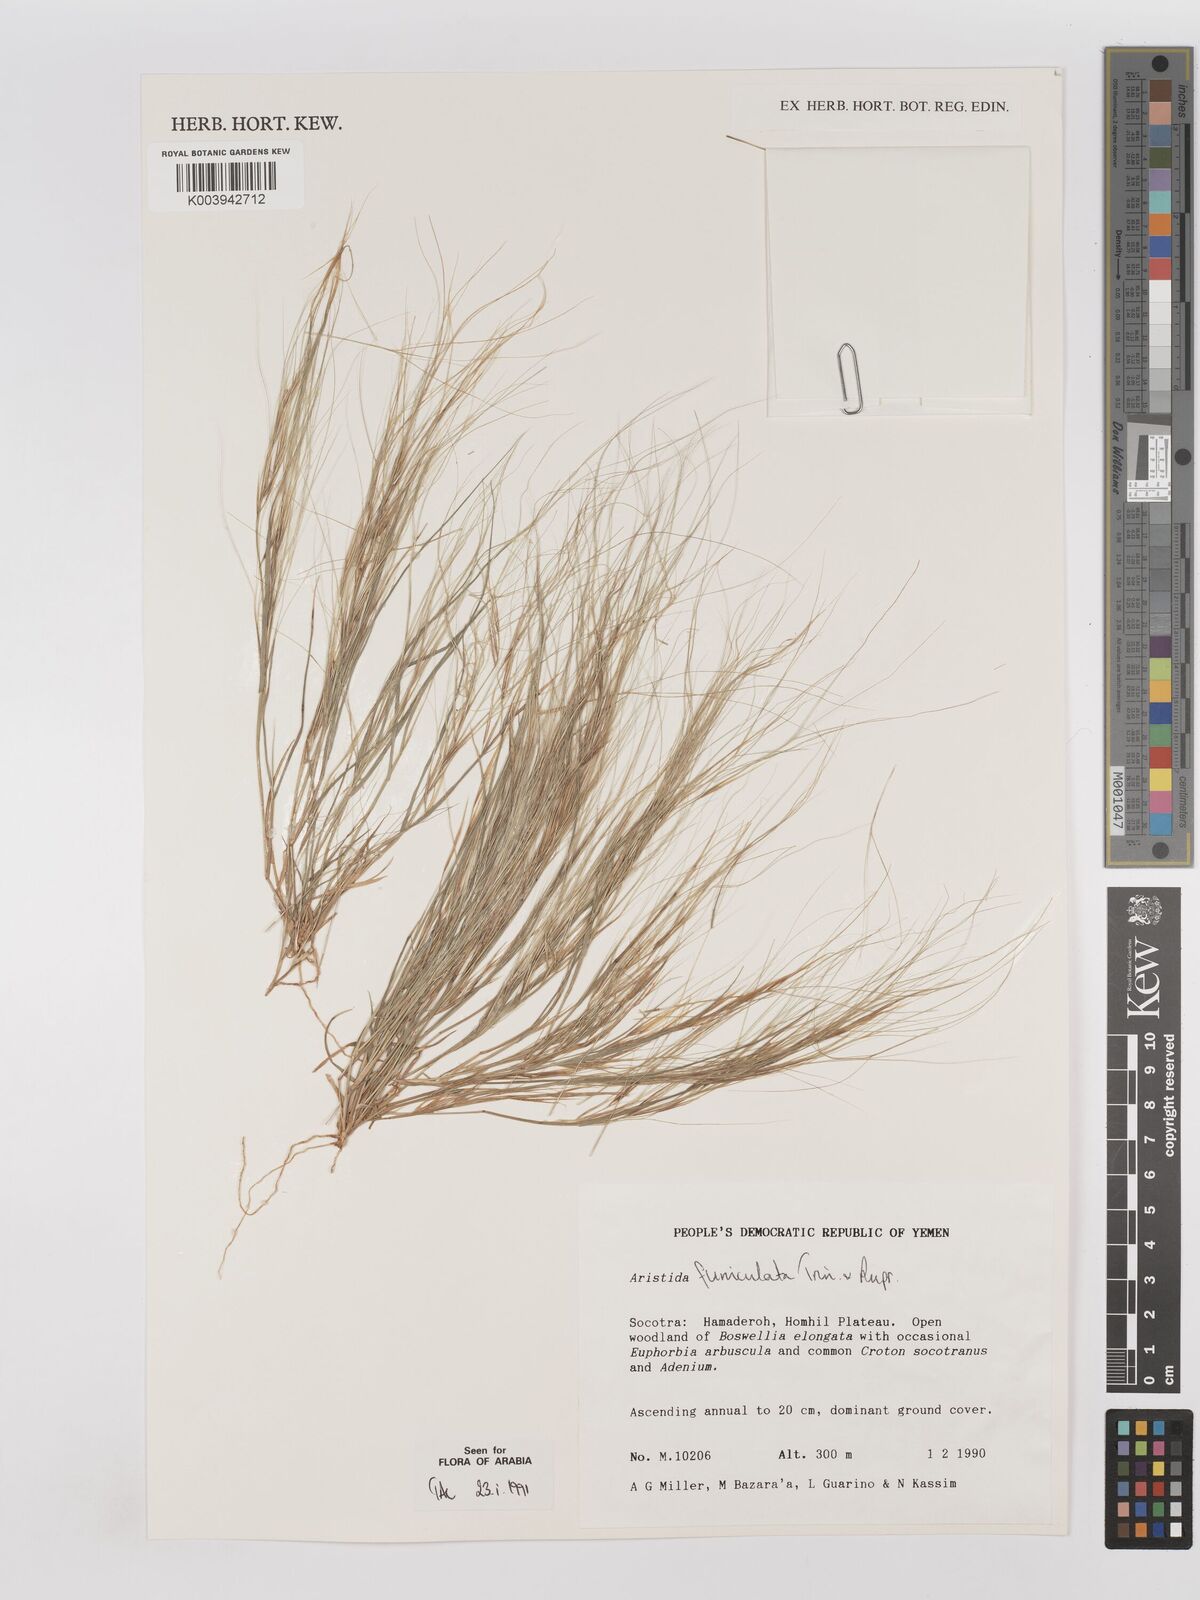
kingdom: Plantae
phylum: Tracheophyta
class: Liliopsida
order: Poales
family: Poaceae
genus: Aristida
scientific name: Aristida funiculata
